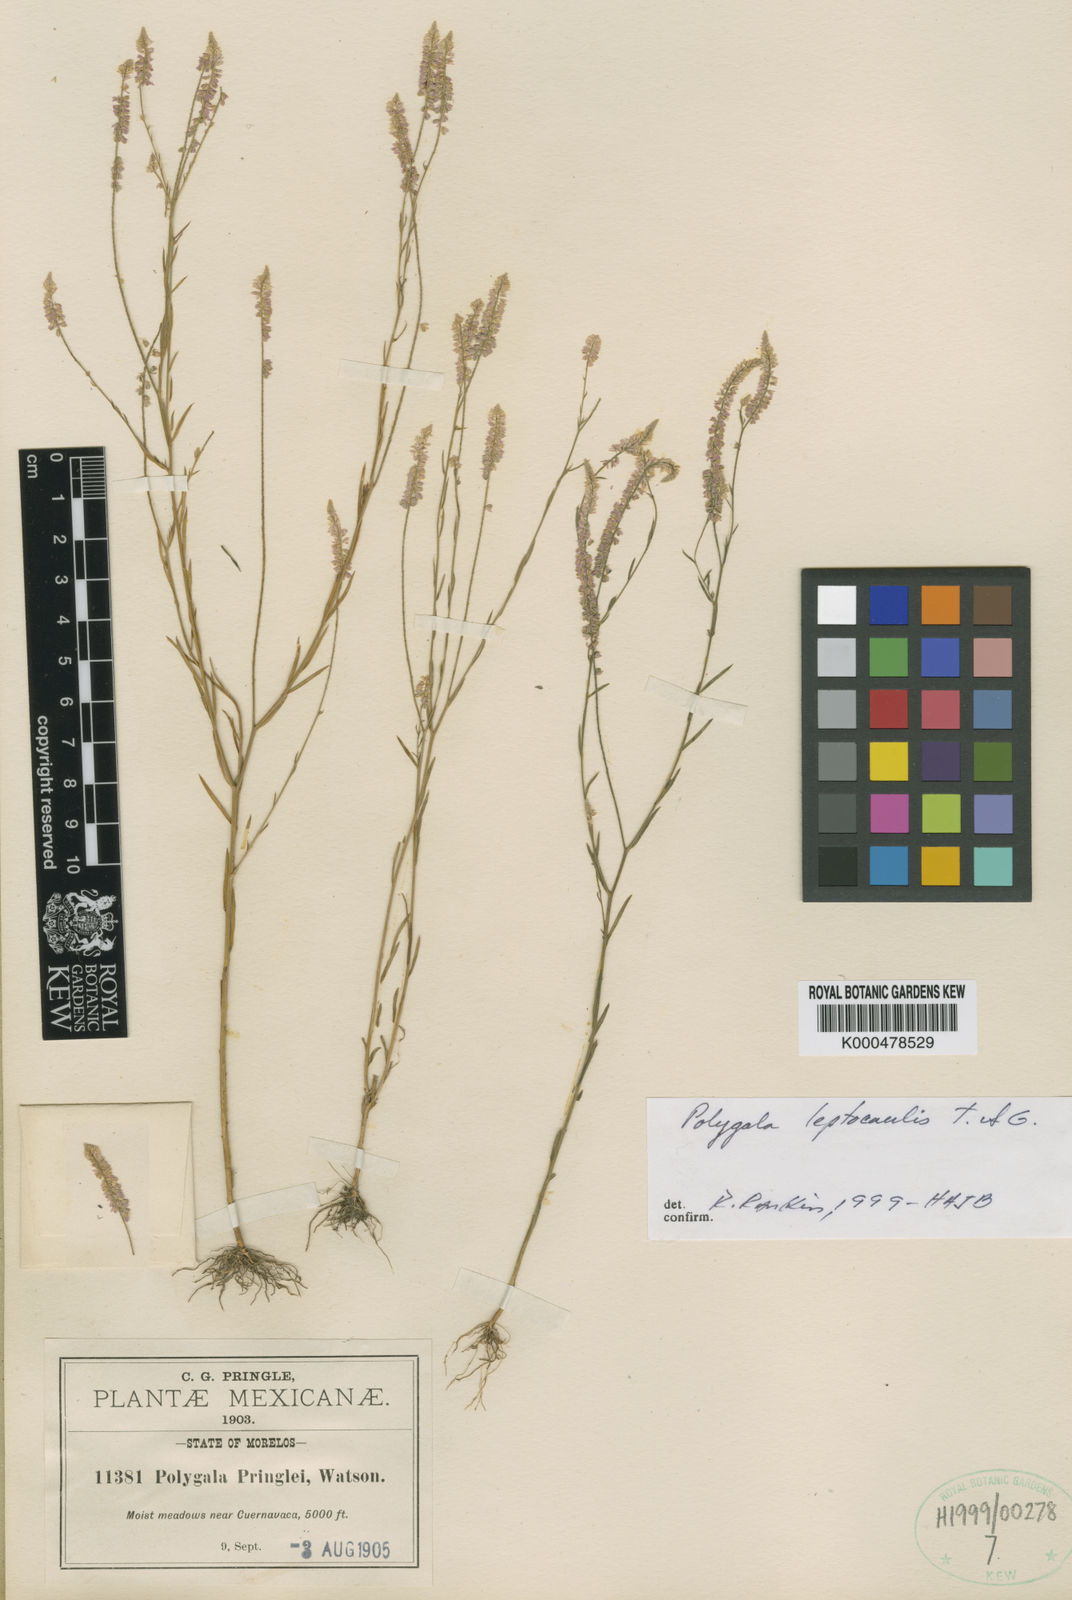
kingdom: Plantae
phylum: Tracheophyta
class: Magnoliopsida
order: Fabales
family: Polygalaceae
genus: Polygala
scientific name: Polygala tenella
